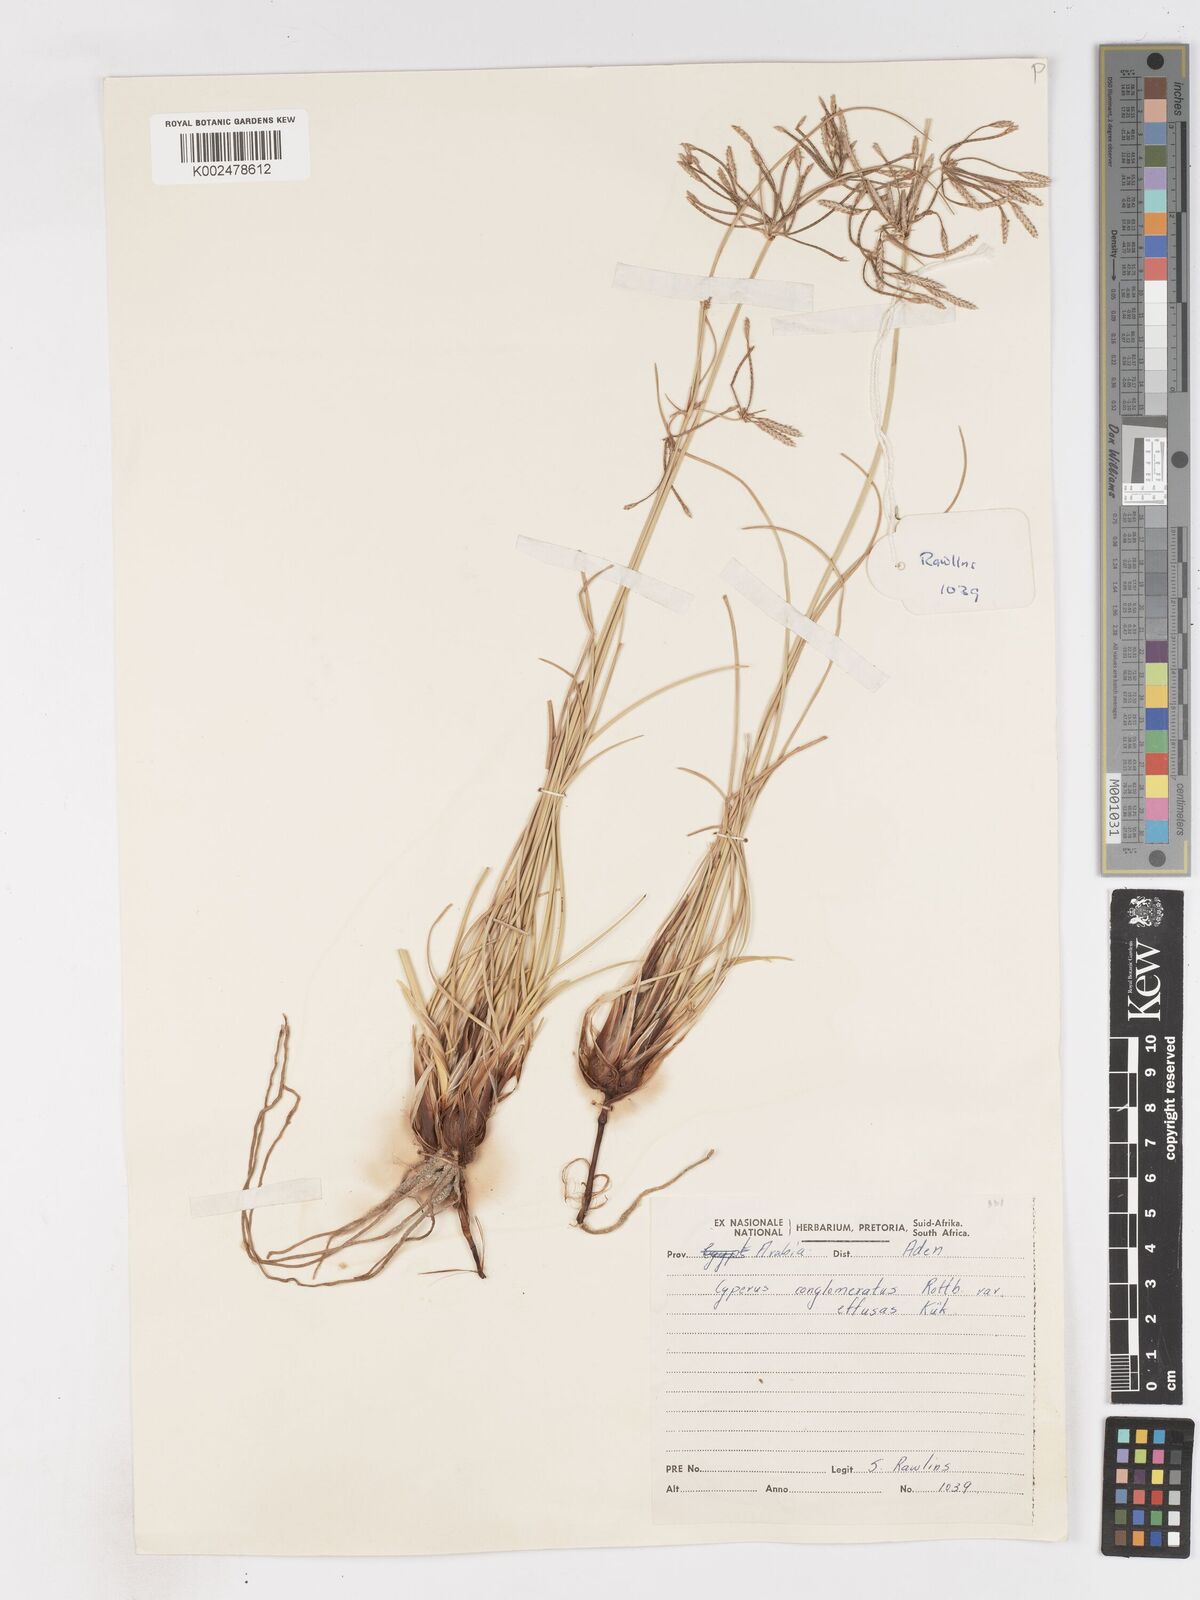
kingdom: Plantae
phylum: Tracheophyta
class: Liliopsida
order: Poales
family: Cyperaceae
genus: Cyperus
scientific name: Cyperus conglomeratus
